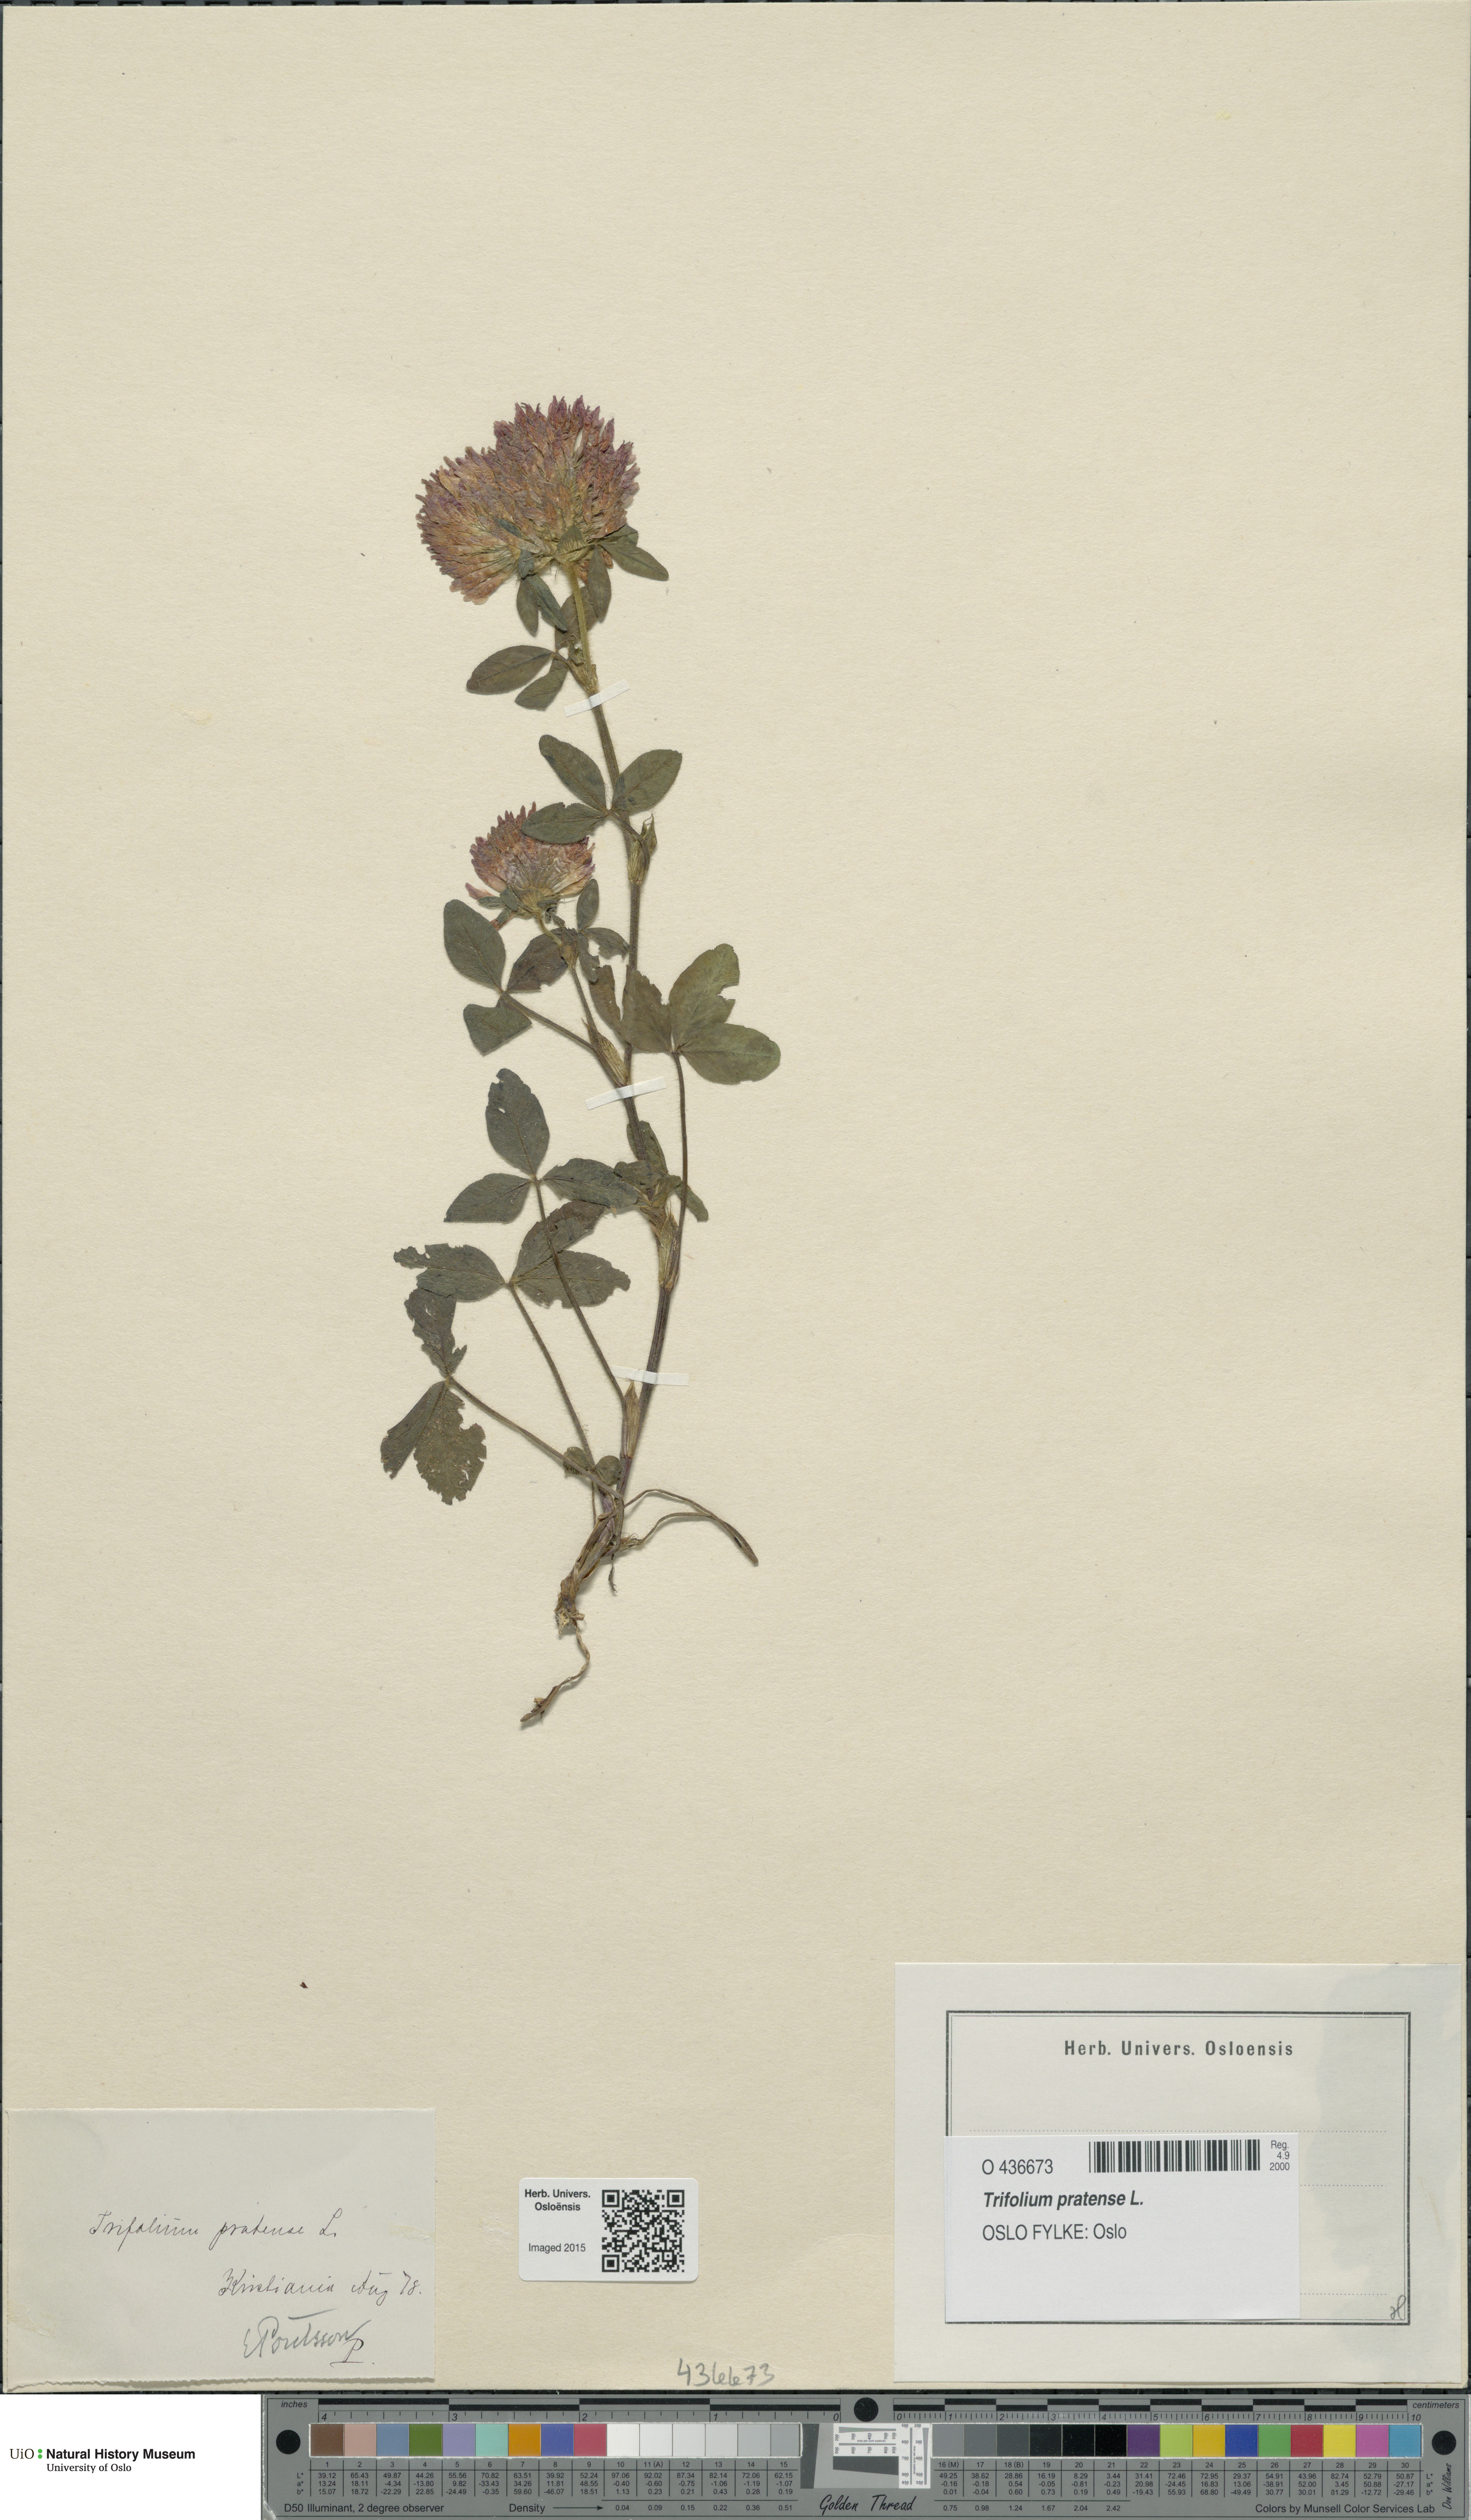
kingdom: Plantae
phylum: Tracheophyta
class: Magnoliopsida
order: Fabales
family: Fabaceae
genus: Trifolium
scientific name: Trifolium pratense
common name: Red clover
